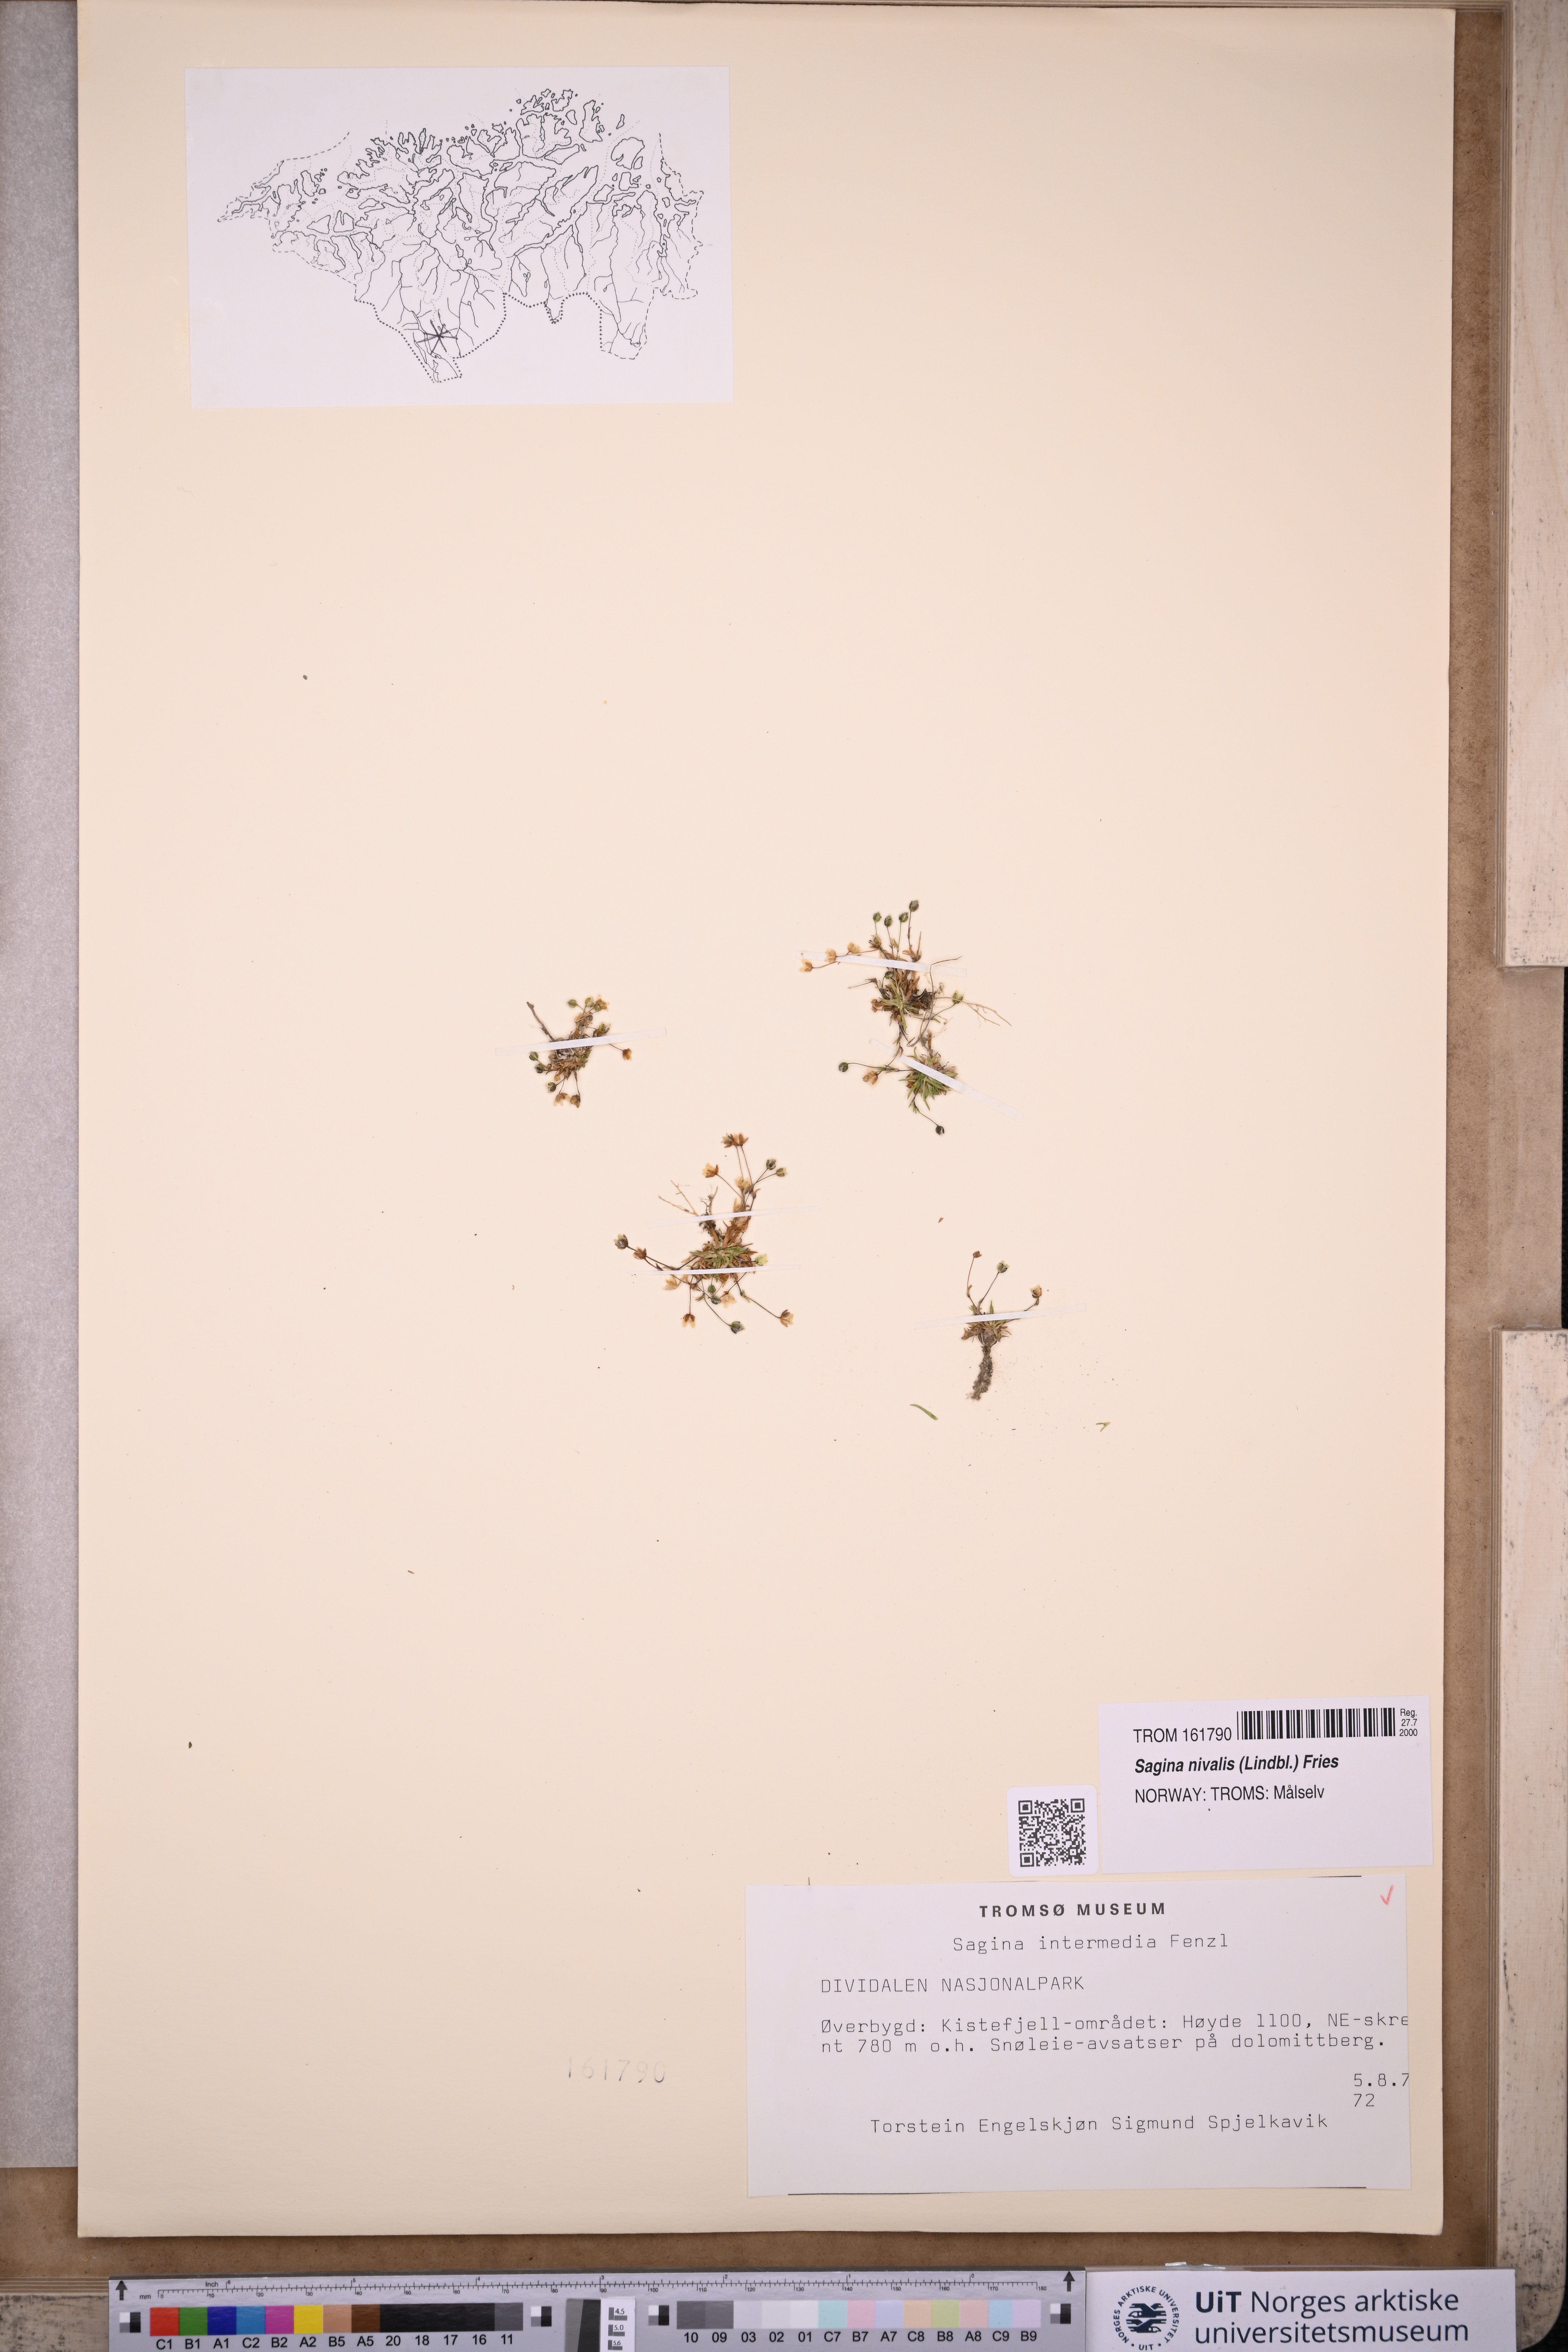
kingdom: Plantae
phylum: Tracheophyta
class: Magnoliopsida
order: Caryophyllales
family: Caryophyllaceae
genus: Sagina
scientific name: Sagina nivalis
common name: Snow pearlwort
